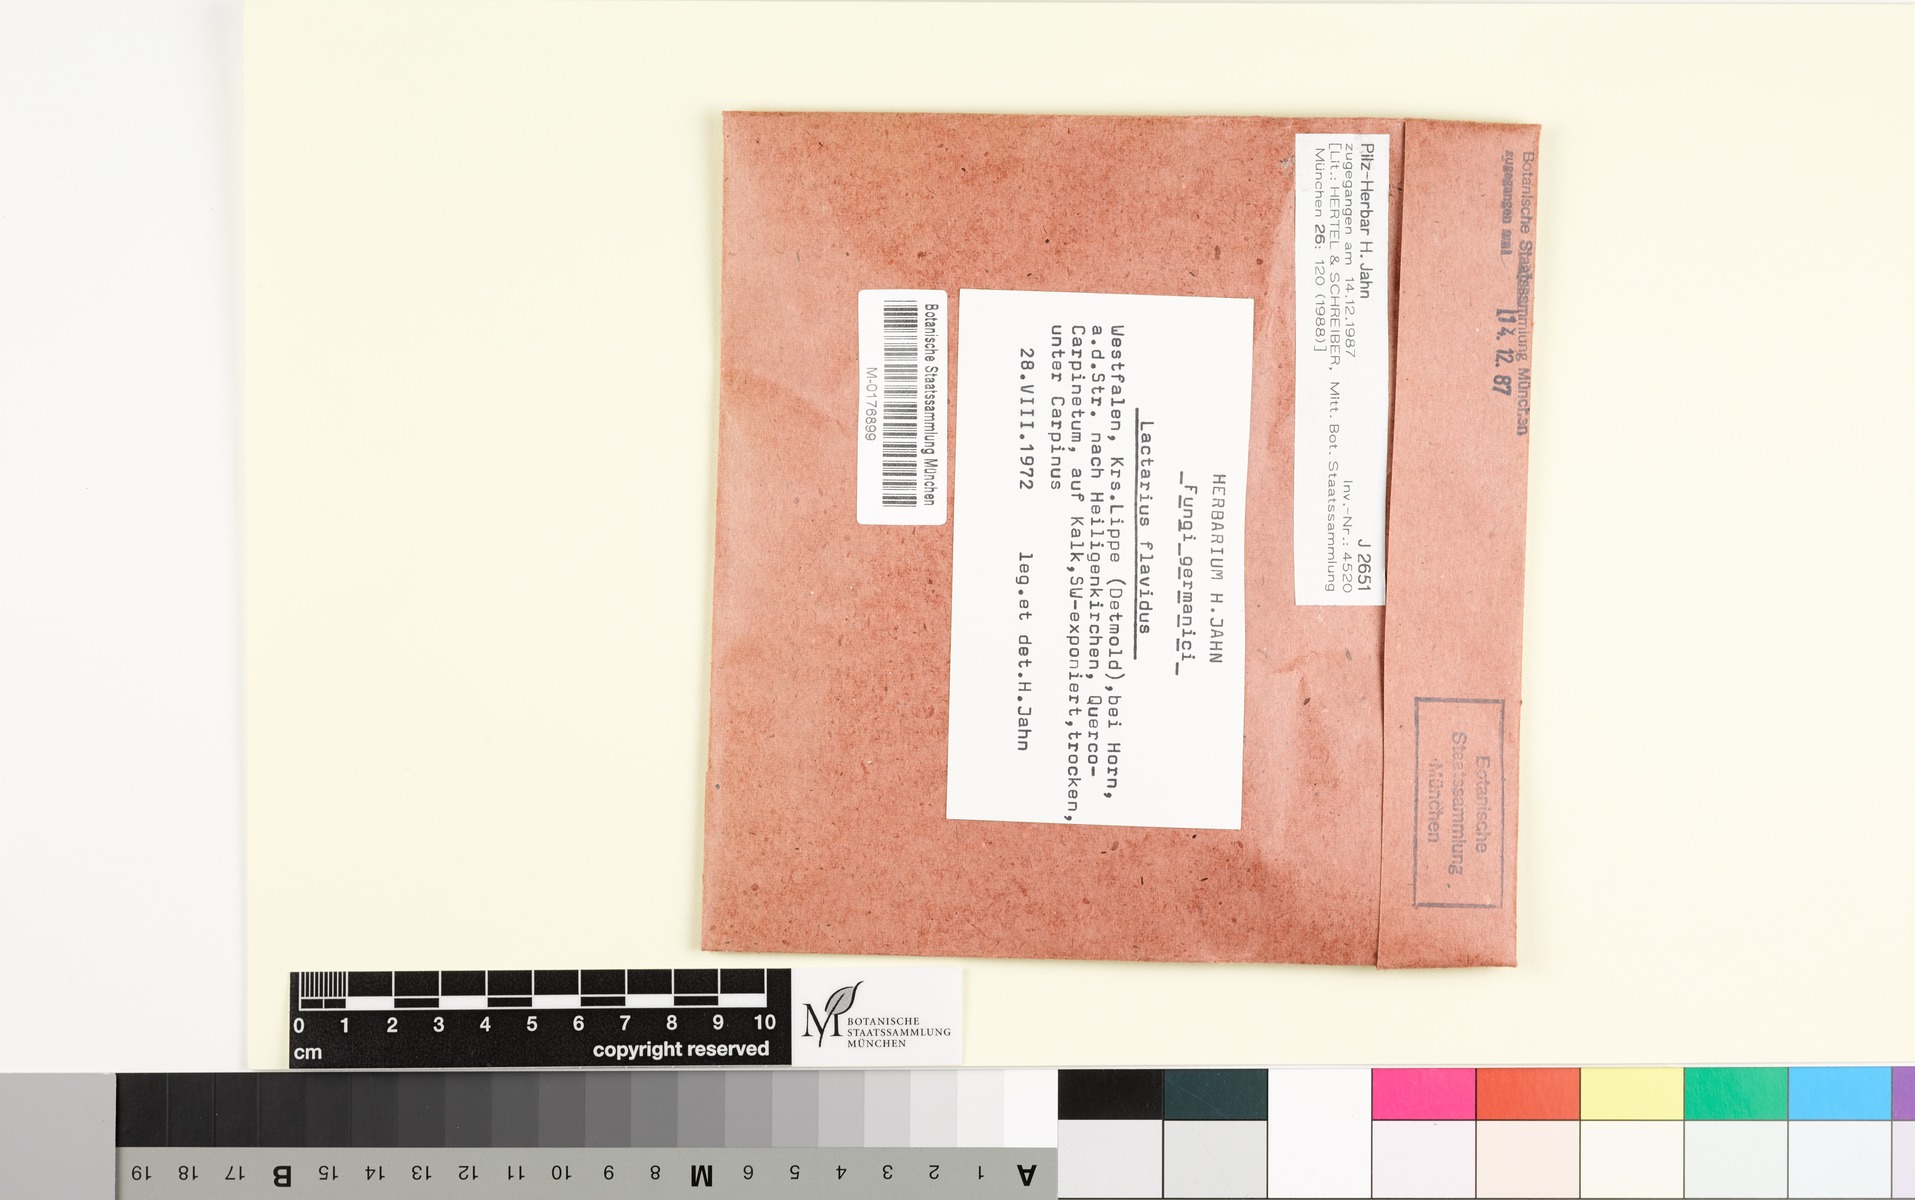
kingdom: Fungi
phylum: Basidiomycota
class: Agaricomycetes
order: Russulales
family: Russulaceae
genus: Lactarius
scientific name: Lactarius flavidus
